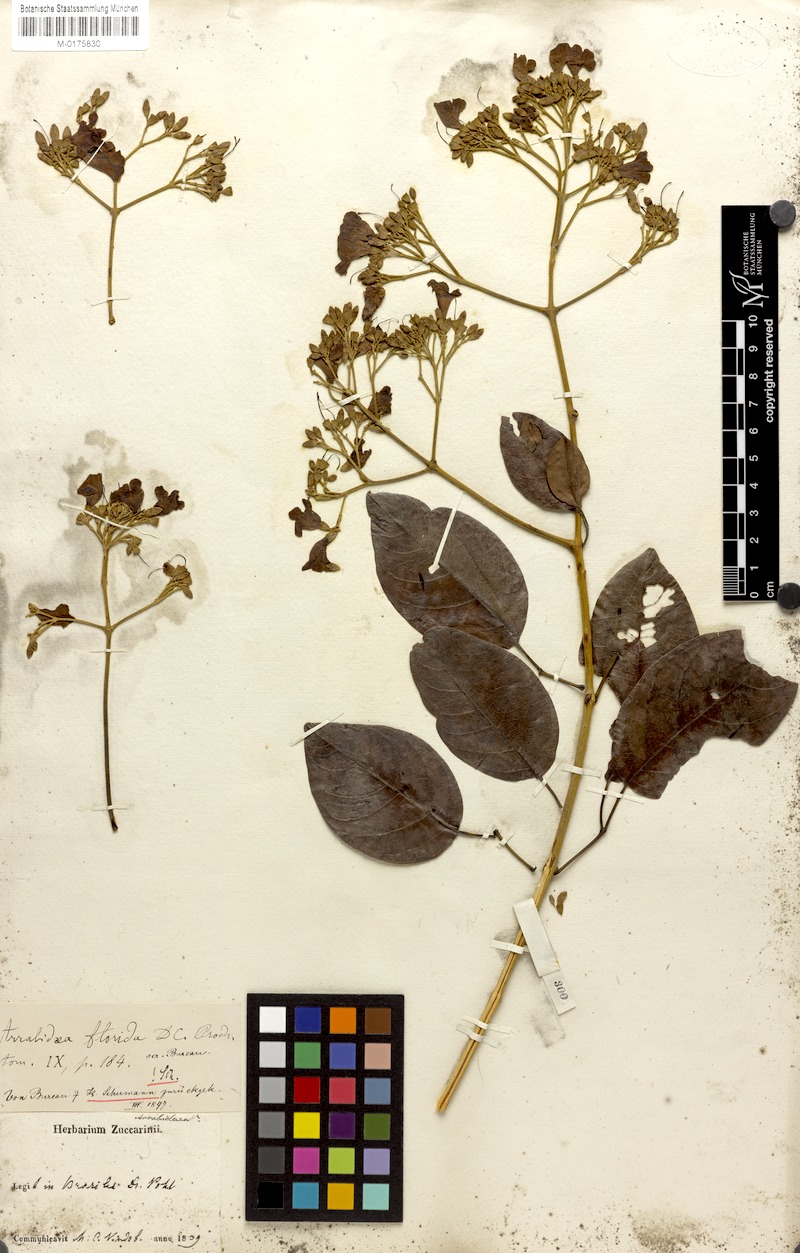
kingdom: Plantae
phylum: Tracheophyta
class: Magnoliopsida
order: Lamiales
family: Bignoniaceae
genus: Fridericia
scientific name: Fridericia florida
